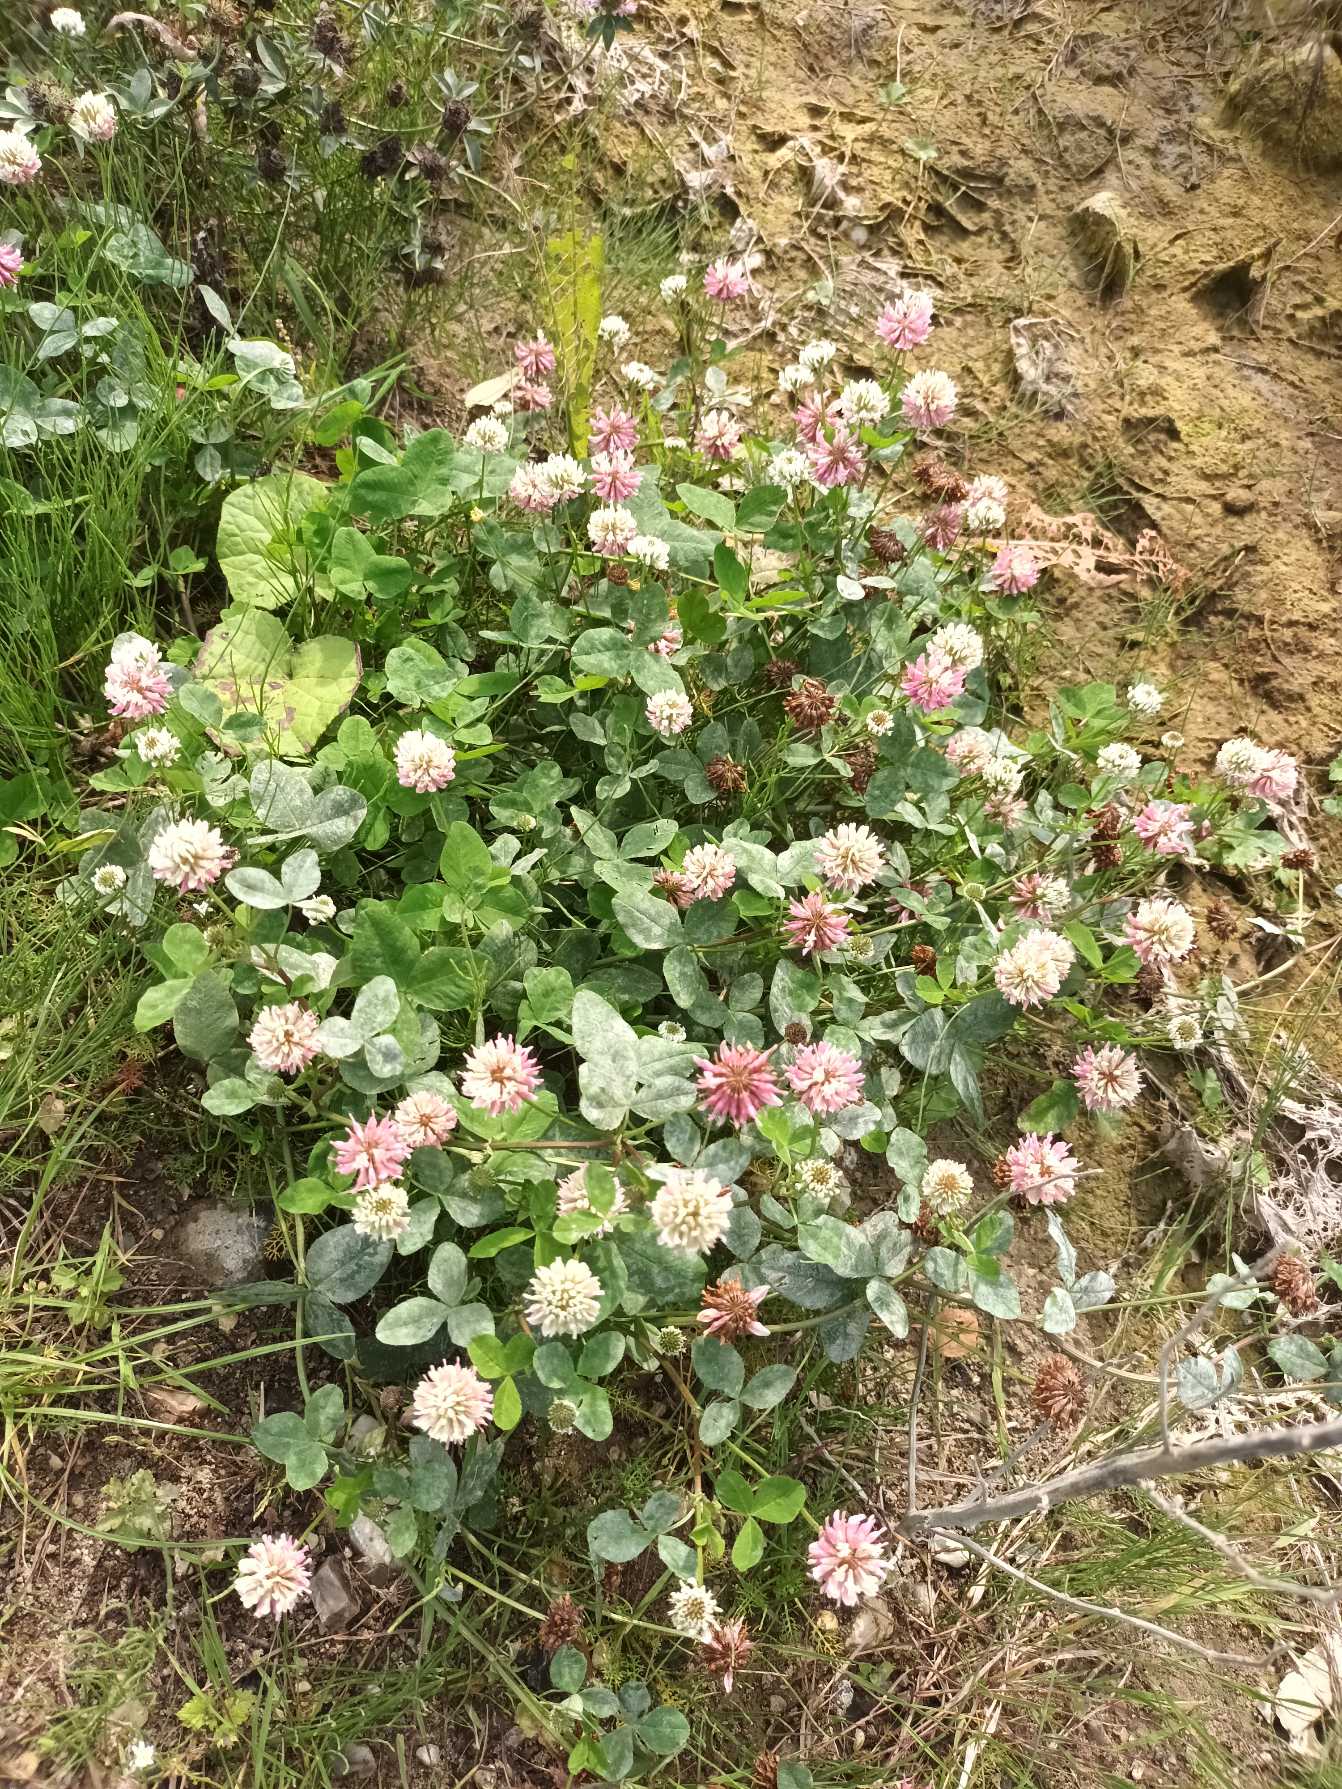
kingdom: Plantae
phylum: Tracheophyta
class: Magnoliopsida
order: Fabales
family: Fabaceae
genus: Trifolium
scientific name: Trifolium hybridum
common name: Alsike-kløver
